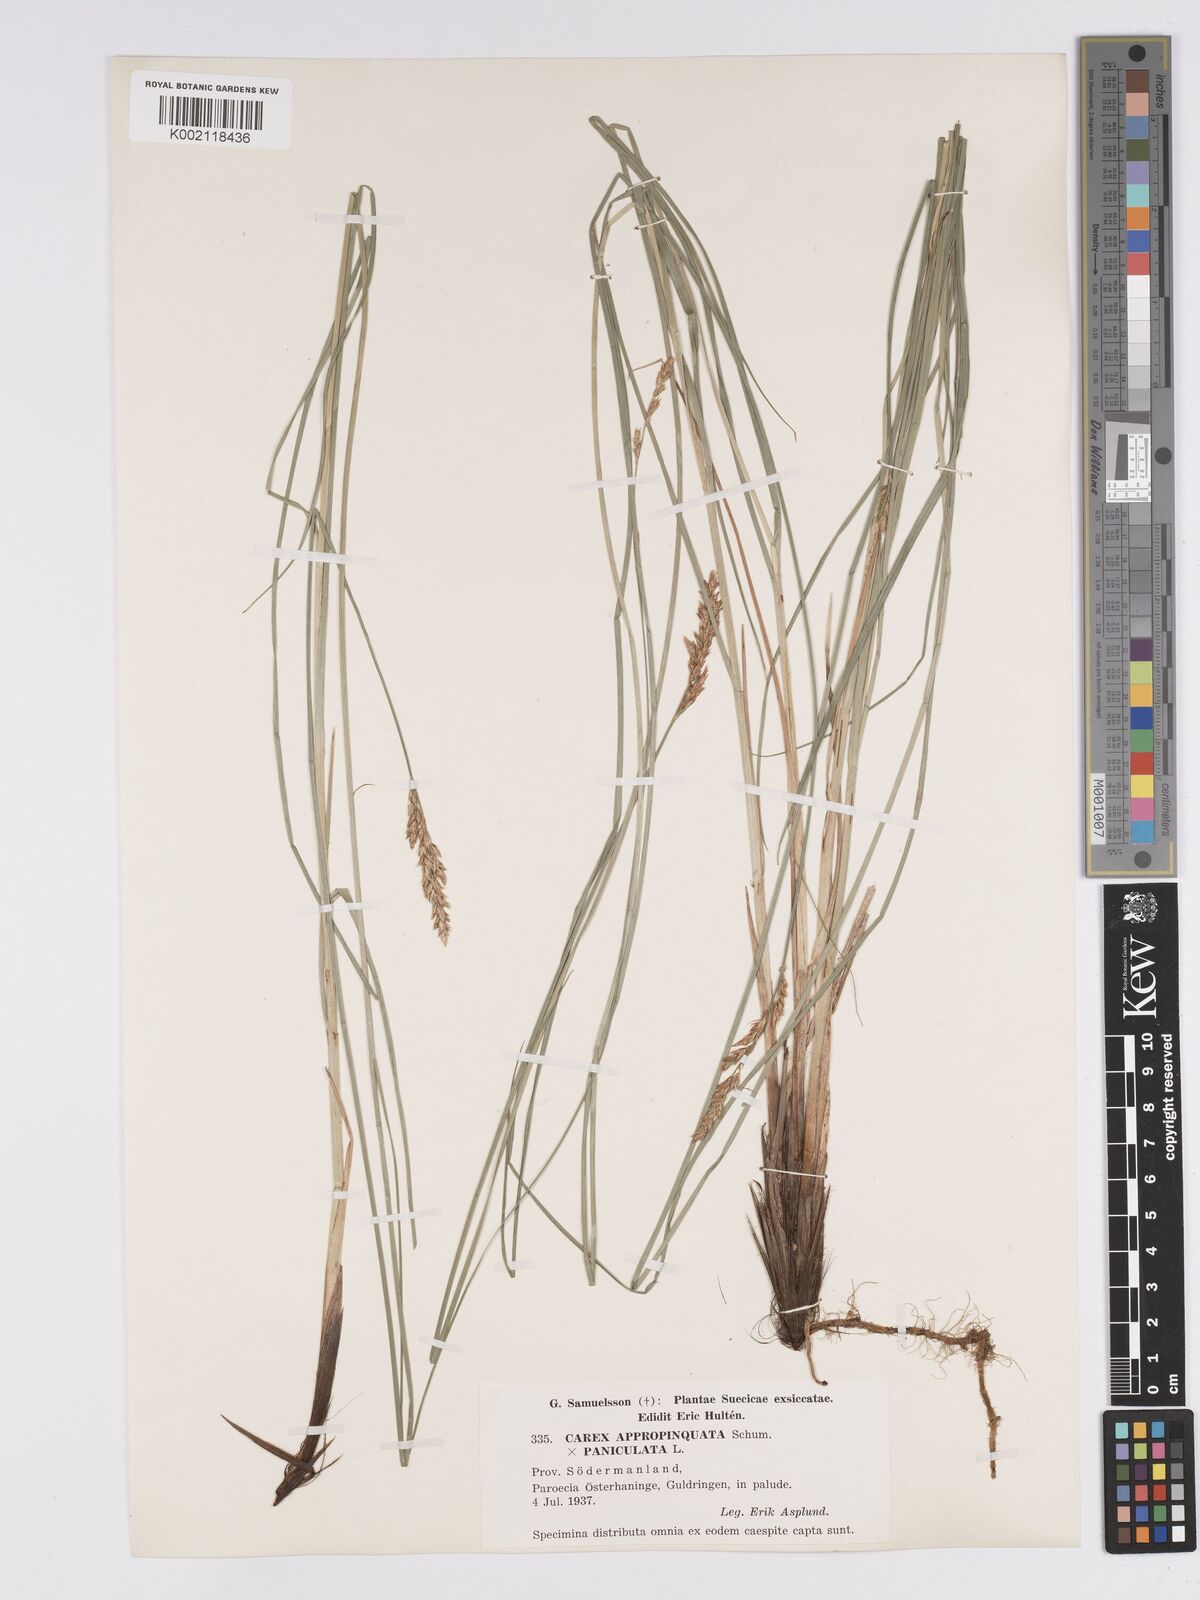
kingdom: Plantae
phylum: Tracheophyta
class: Liliopsida
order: Poales
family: Cyperaceae
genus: Carex
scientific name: Carex rotae
